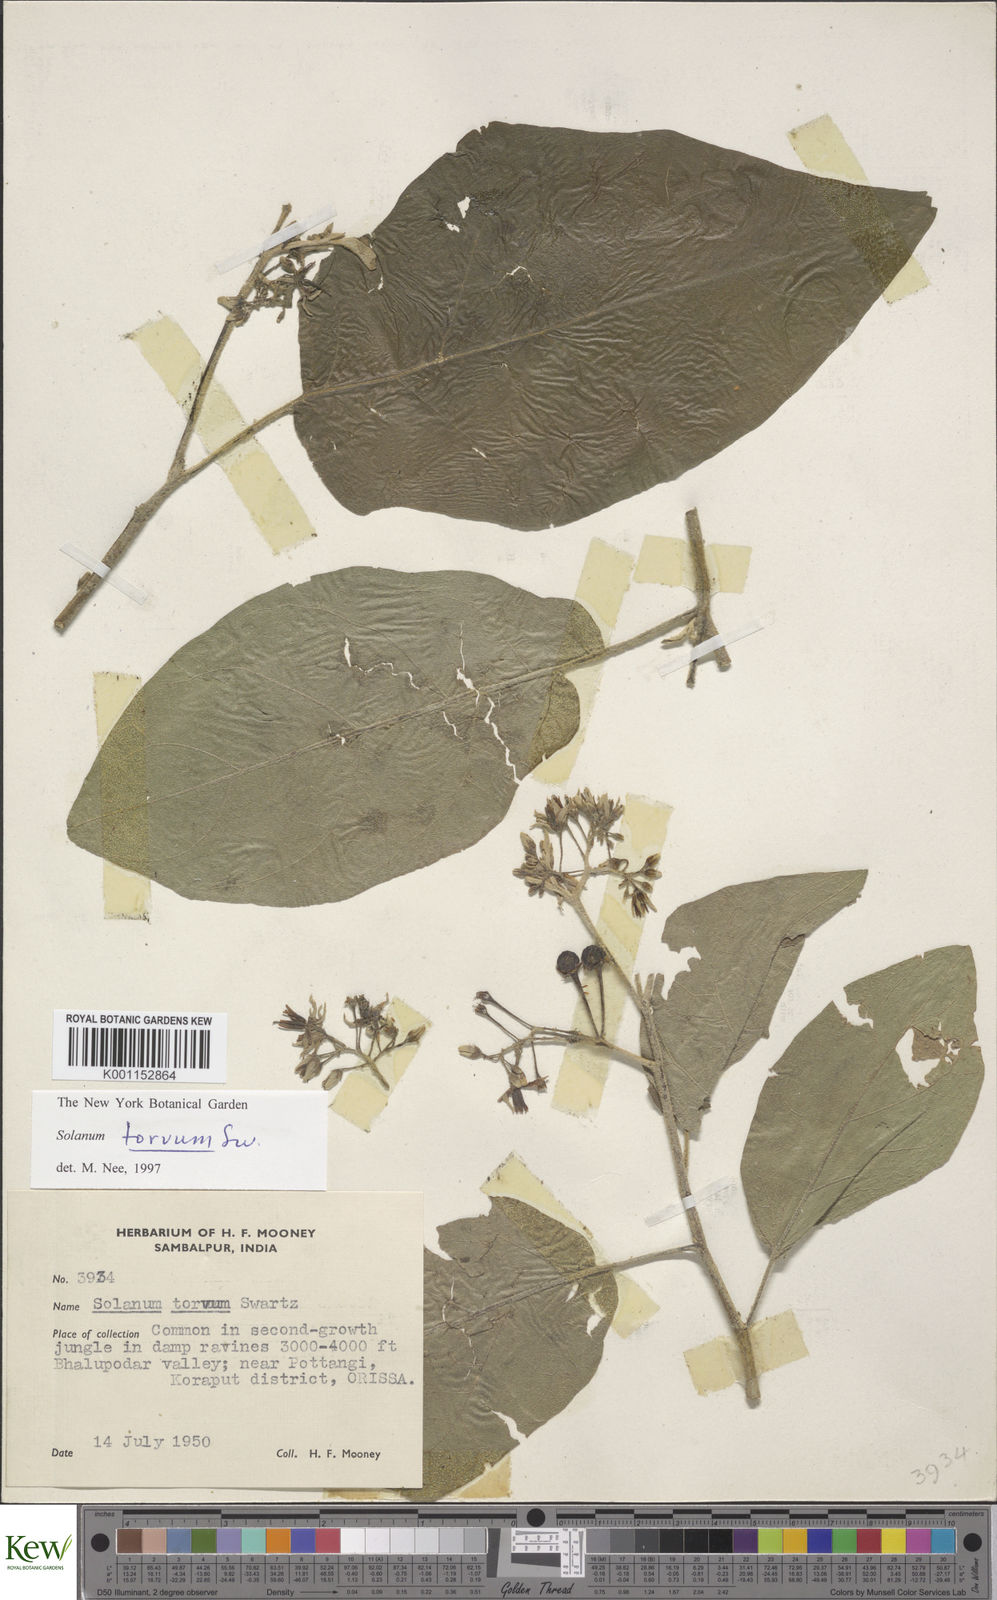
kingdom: Plantae
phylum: Tracheophyta
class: Magnoliopsida
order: Solanales
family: Solanaceae
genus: Solanum
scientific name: Solanum torvum
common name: Turkey berry
